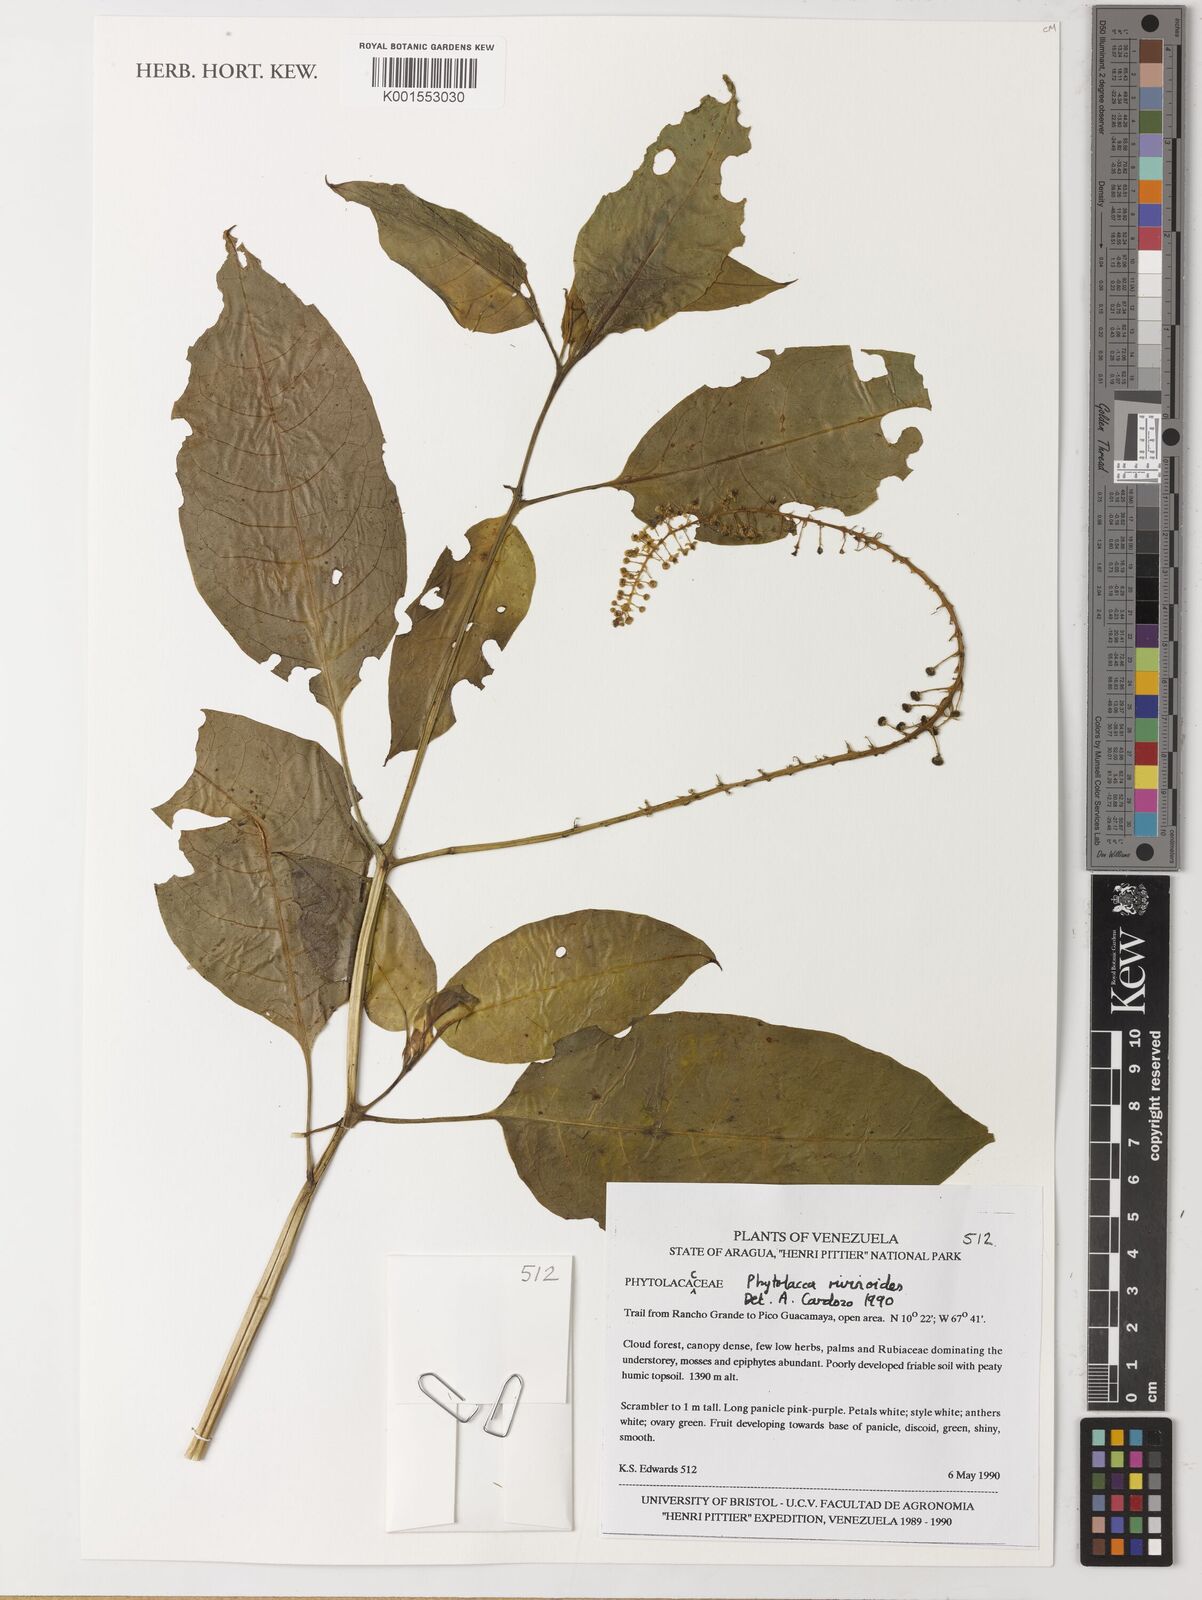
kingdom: Plantae
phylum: Tracheophyta
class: Magnoliopsida
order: Caryophyllales
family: Phytolaccaceae
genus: Phytolacca
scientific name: Phytolacca rivinoides
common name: Venezuelan pokeweed
